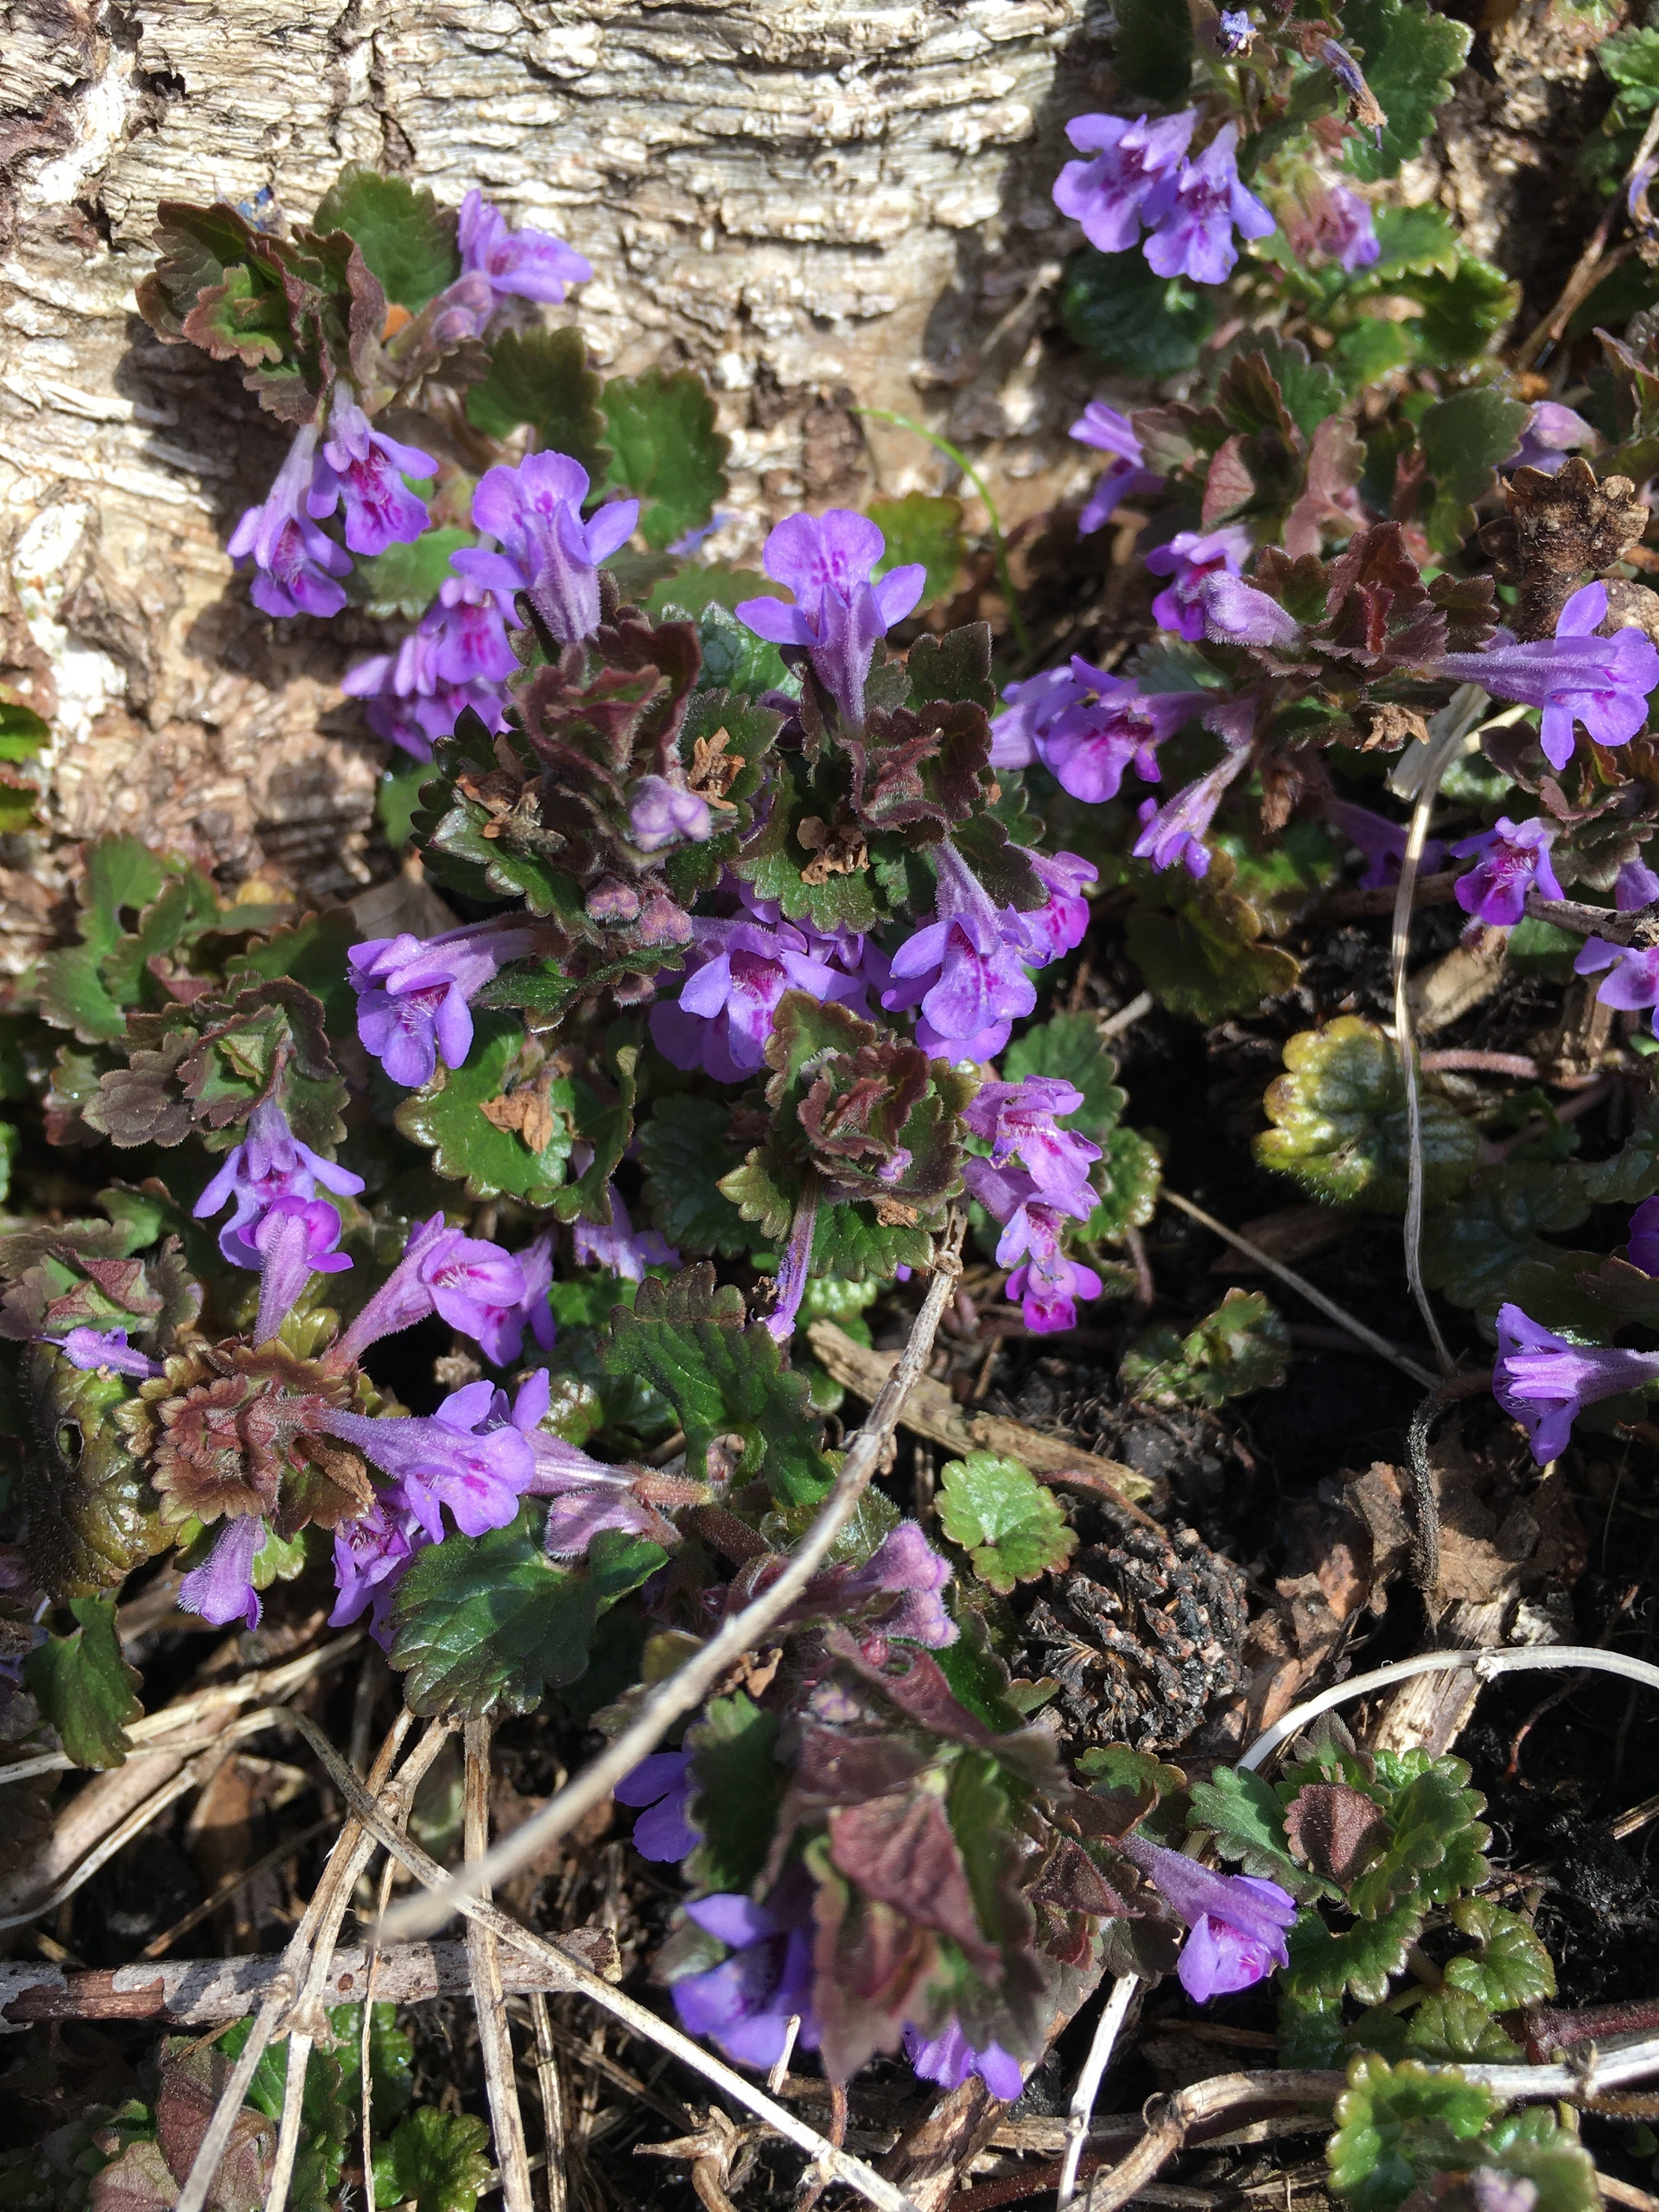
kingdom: Plantae
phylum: Tracheophyta
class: Magnoliopsida
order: Lamiales
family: Lamiaceae
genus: Glechoma
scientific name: Glechoma hederacea
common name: Korsknap
